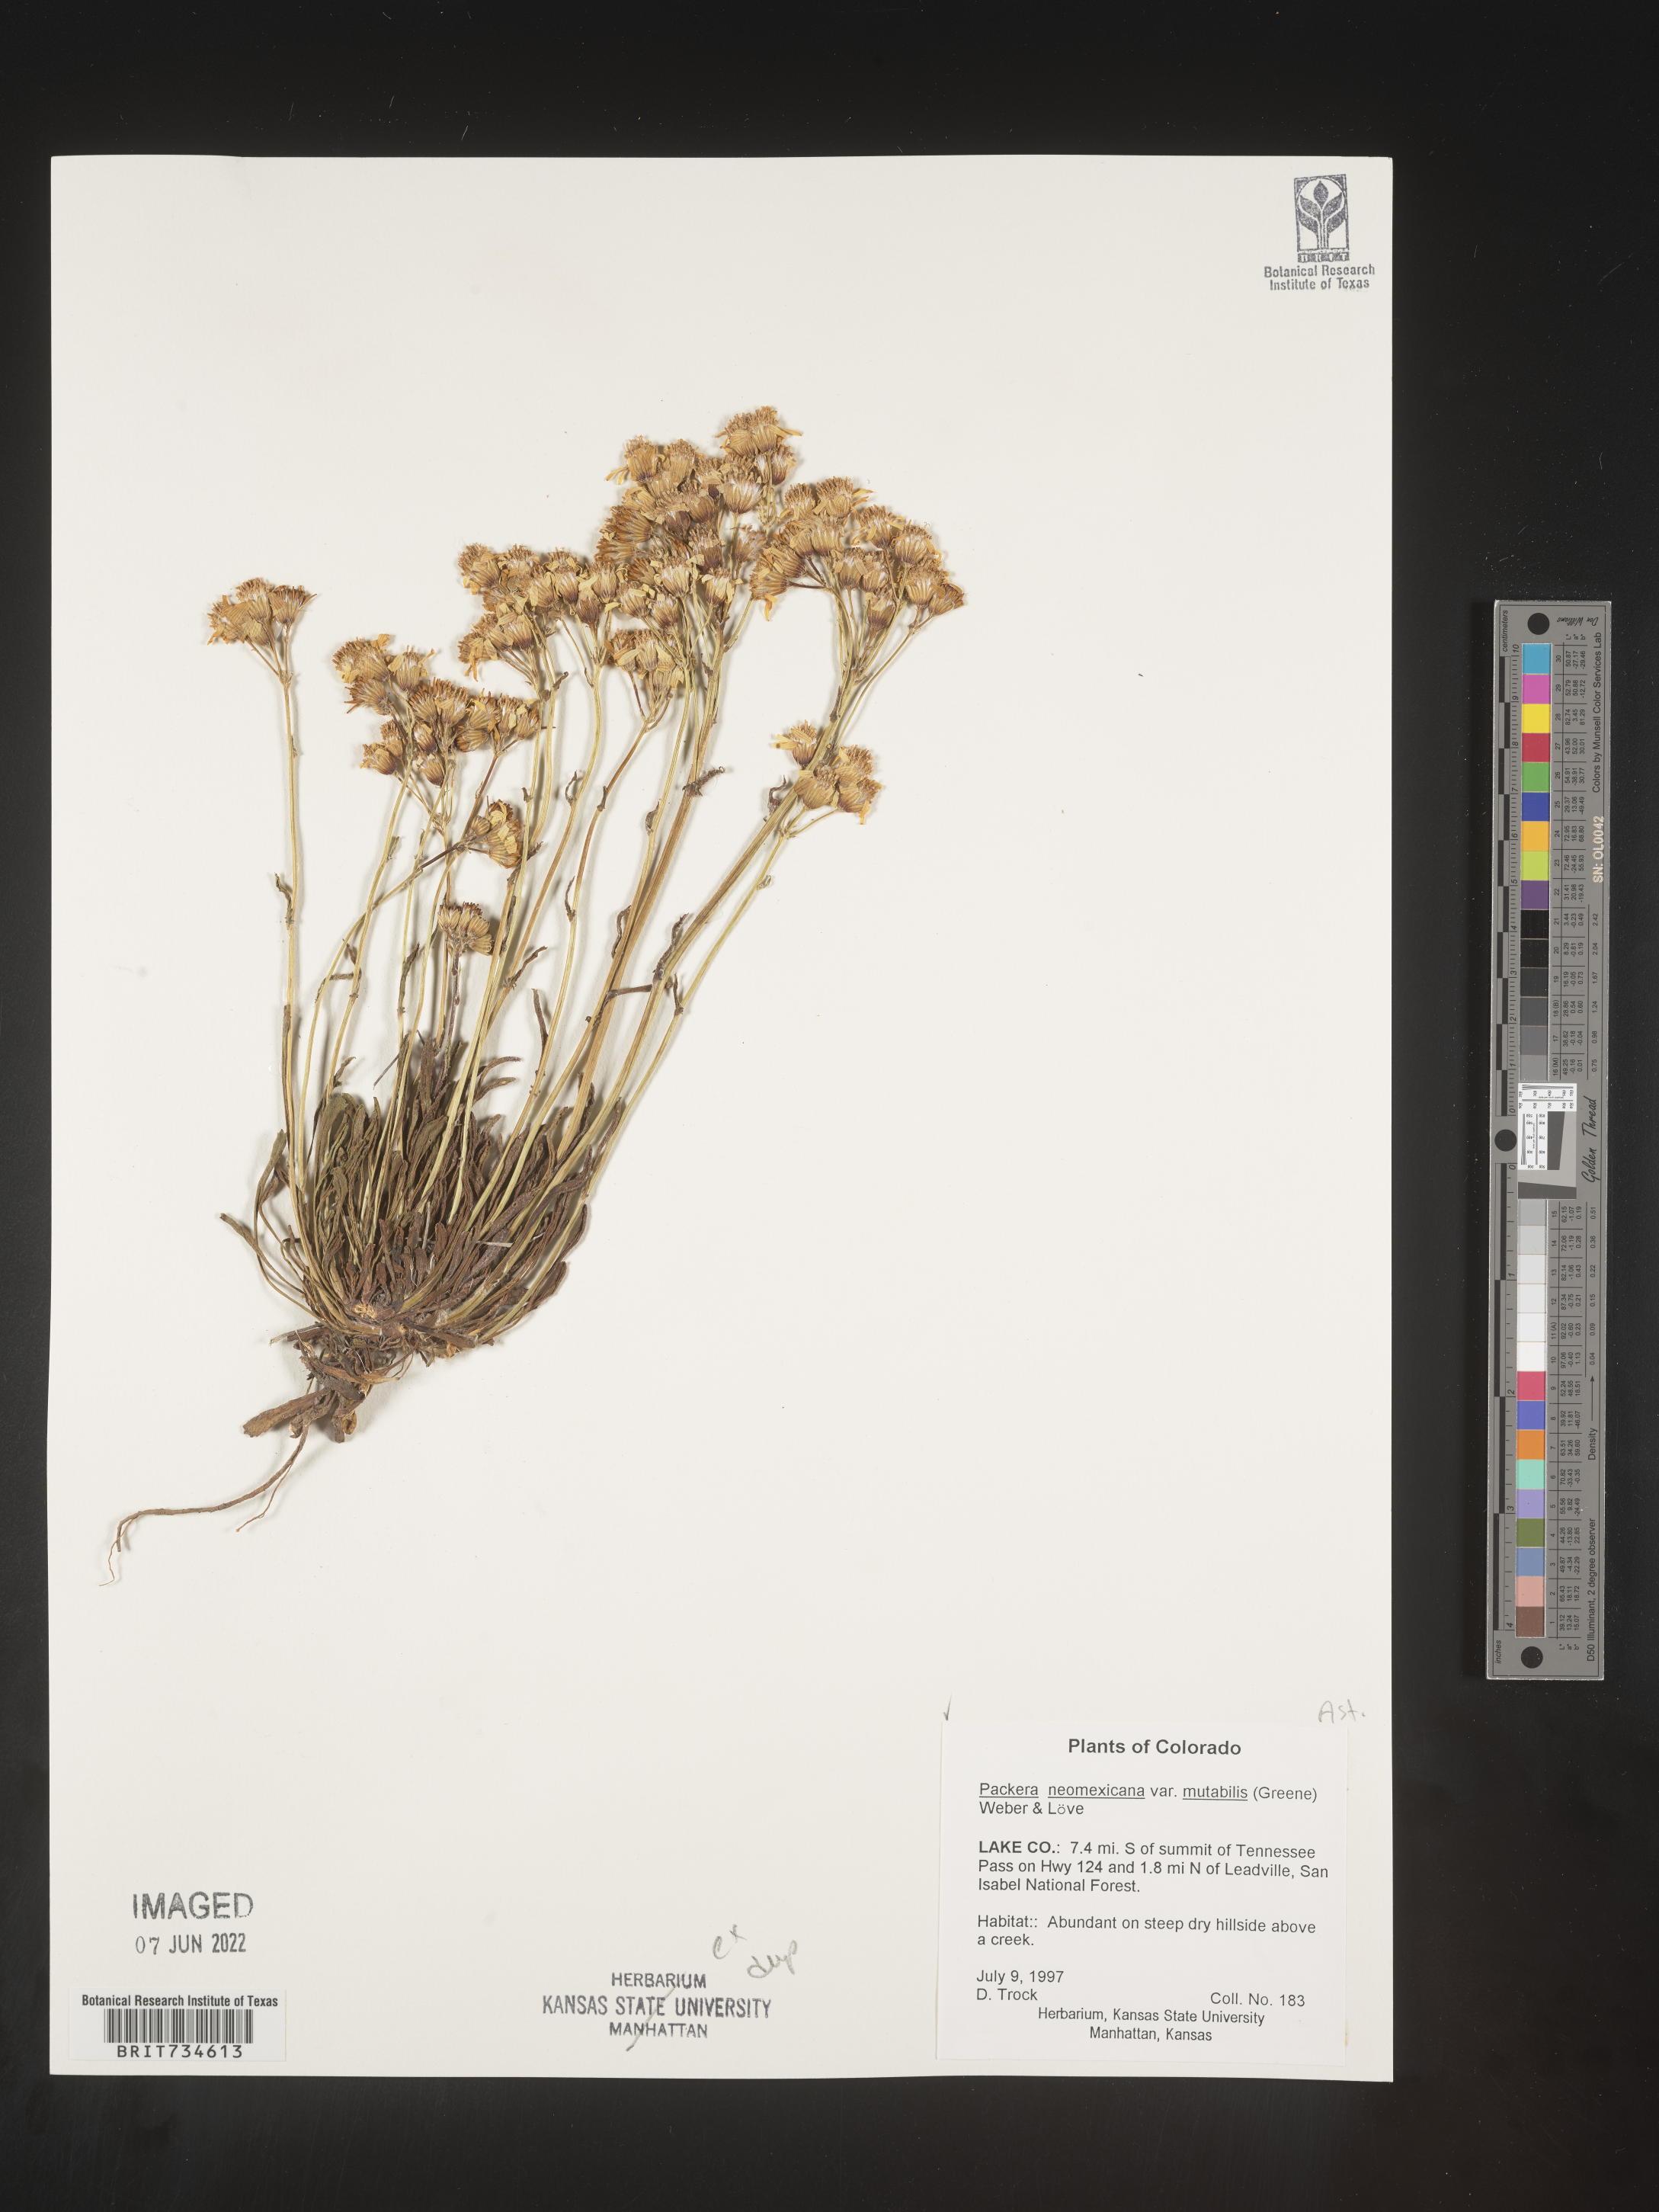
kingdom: Plantae
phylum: Tracheophyta
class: Magnoliopsida
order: Asterales
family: Asteraceae
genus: Packera
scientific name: Packera neomexicana
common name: New mexico butterweed
